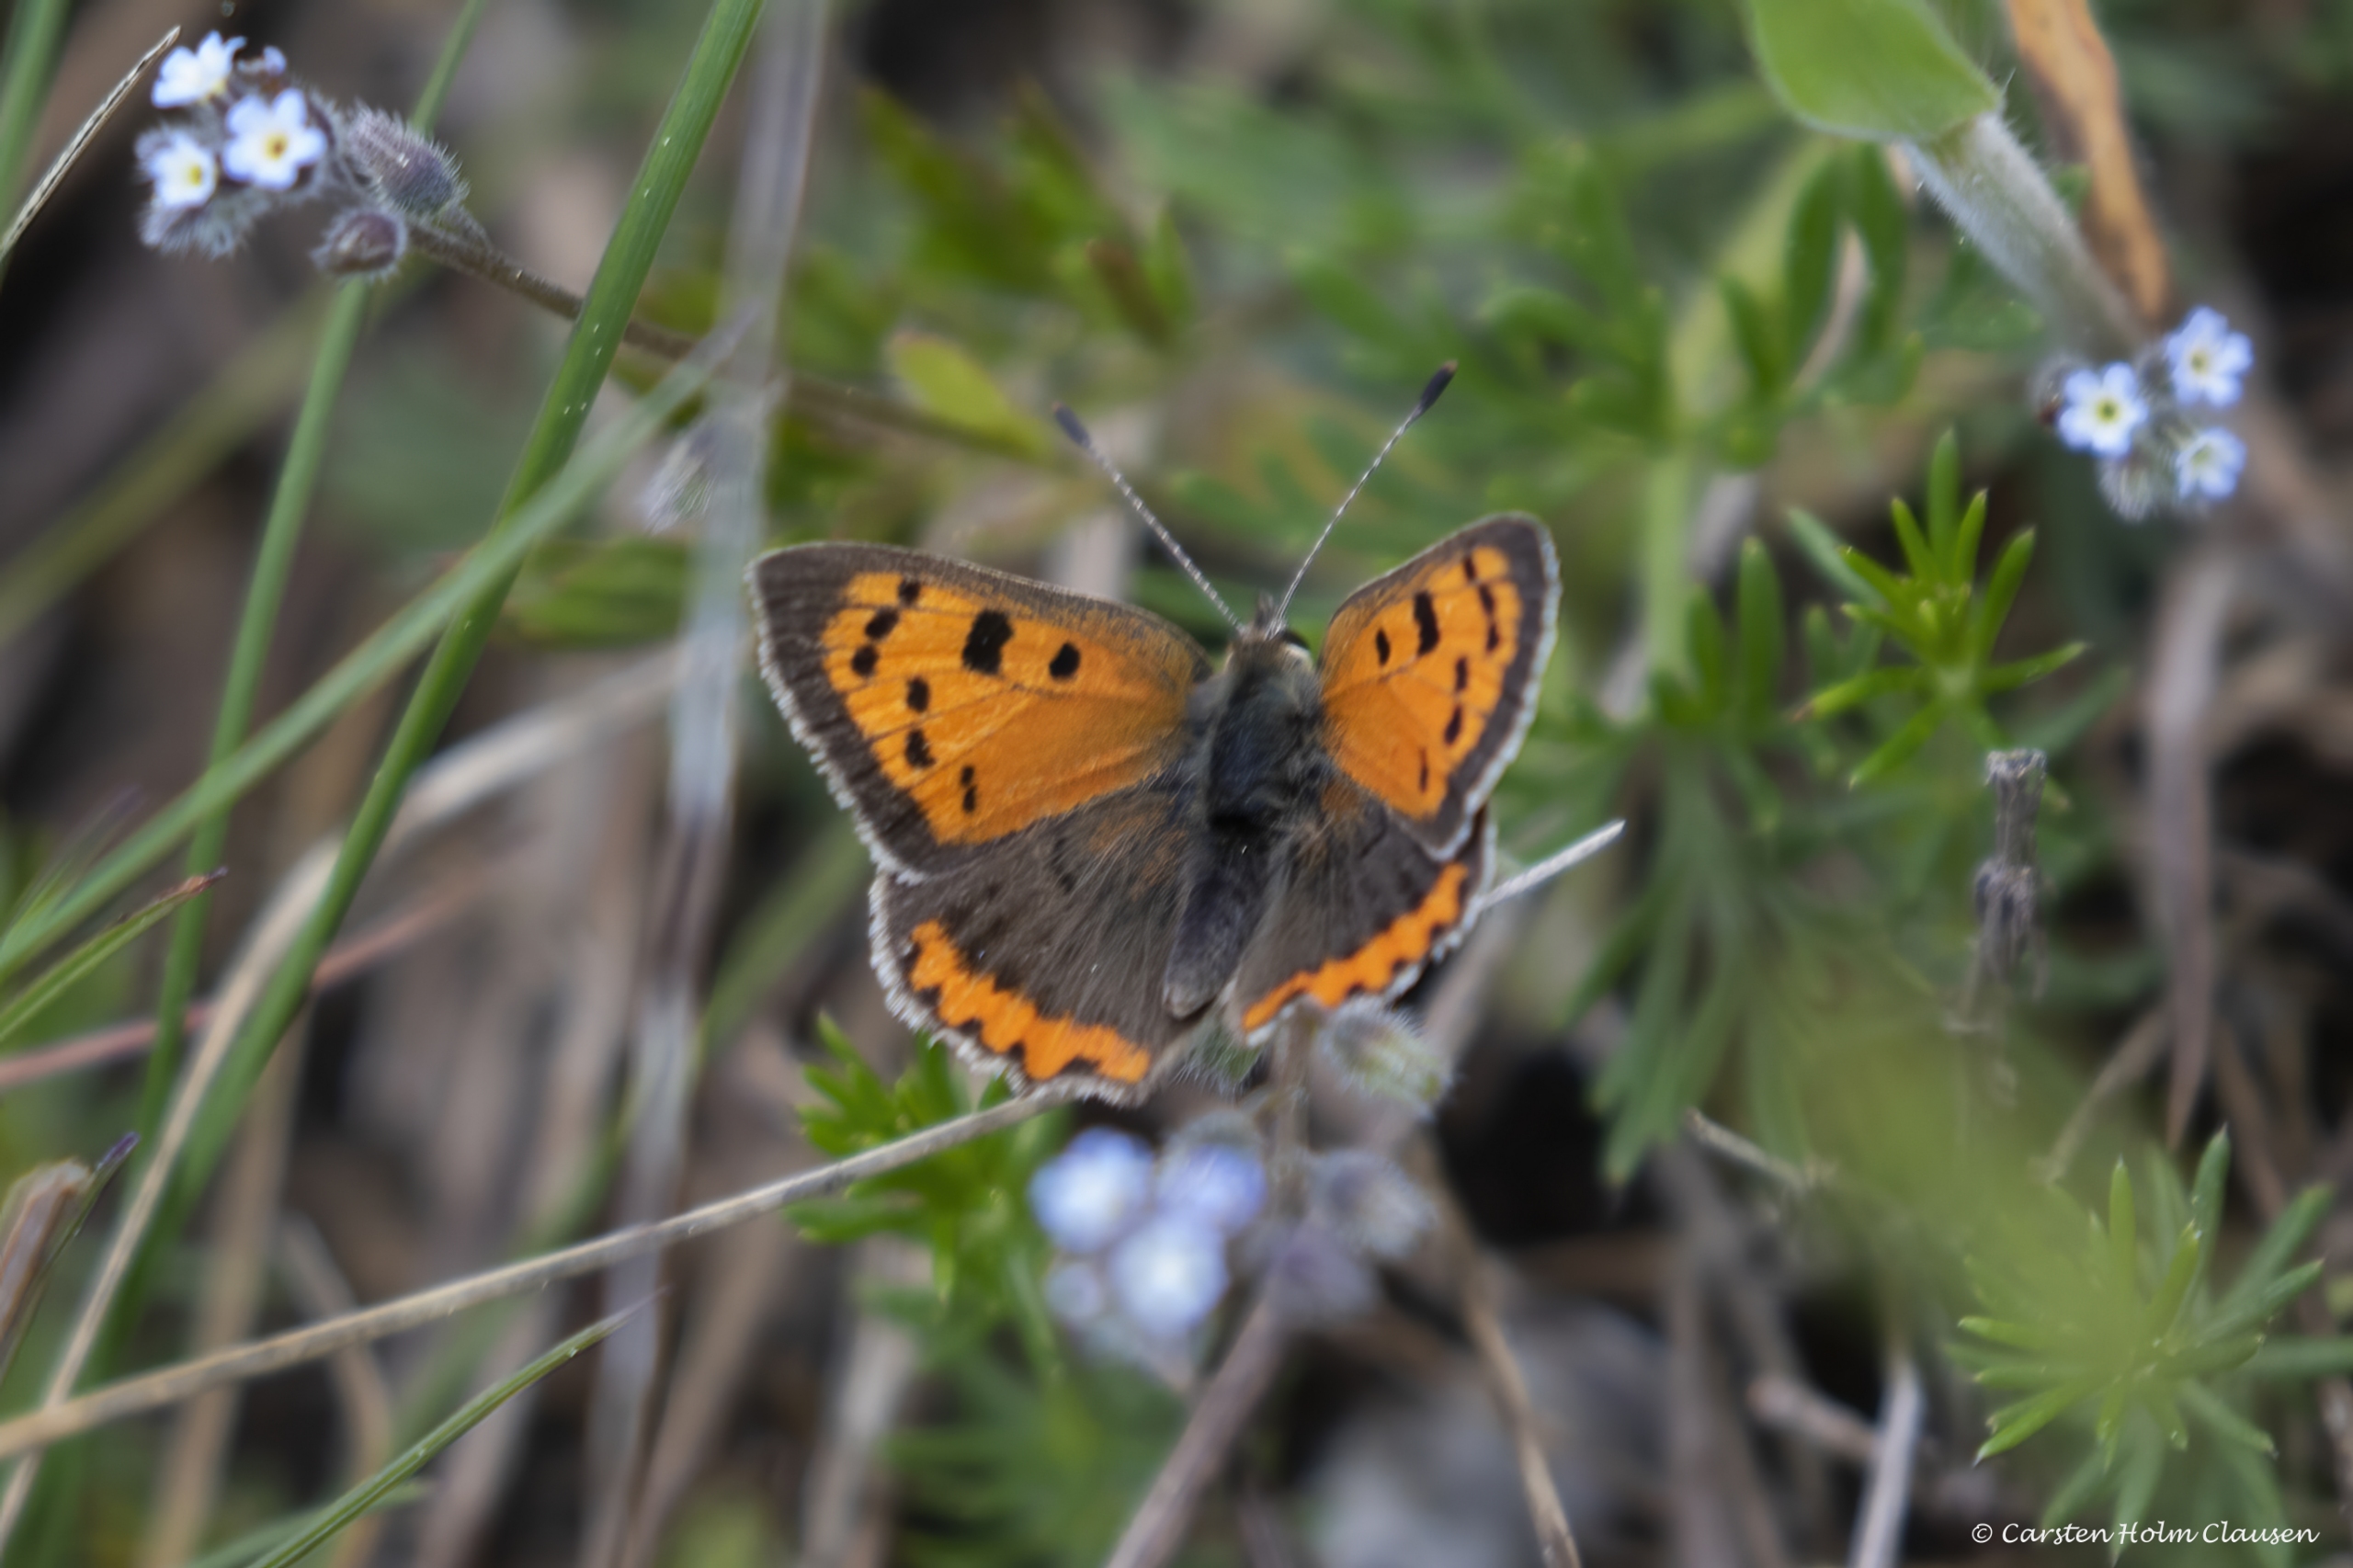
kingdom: Animalia
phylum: Arthropoda
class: Insecta
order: Lepidoptera
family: Lycaenidae
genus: Lycaena
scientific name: Lycaena phlaeas
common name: Lille ildfugl
